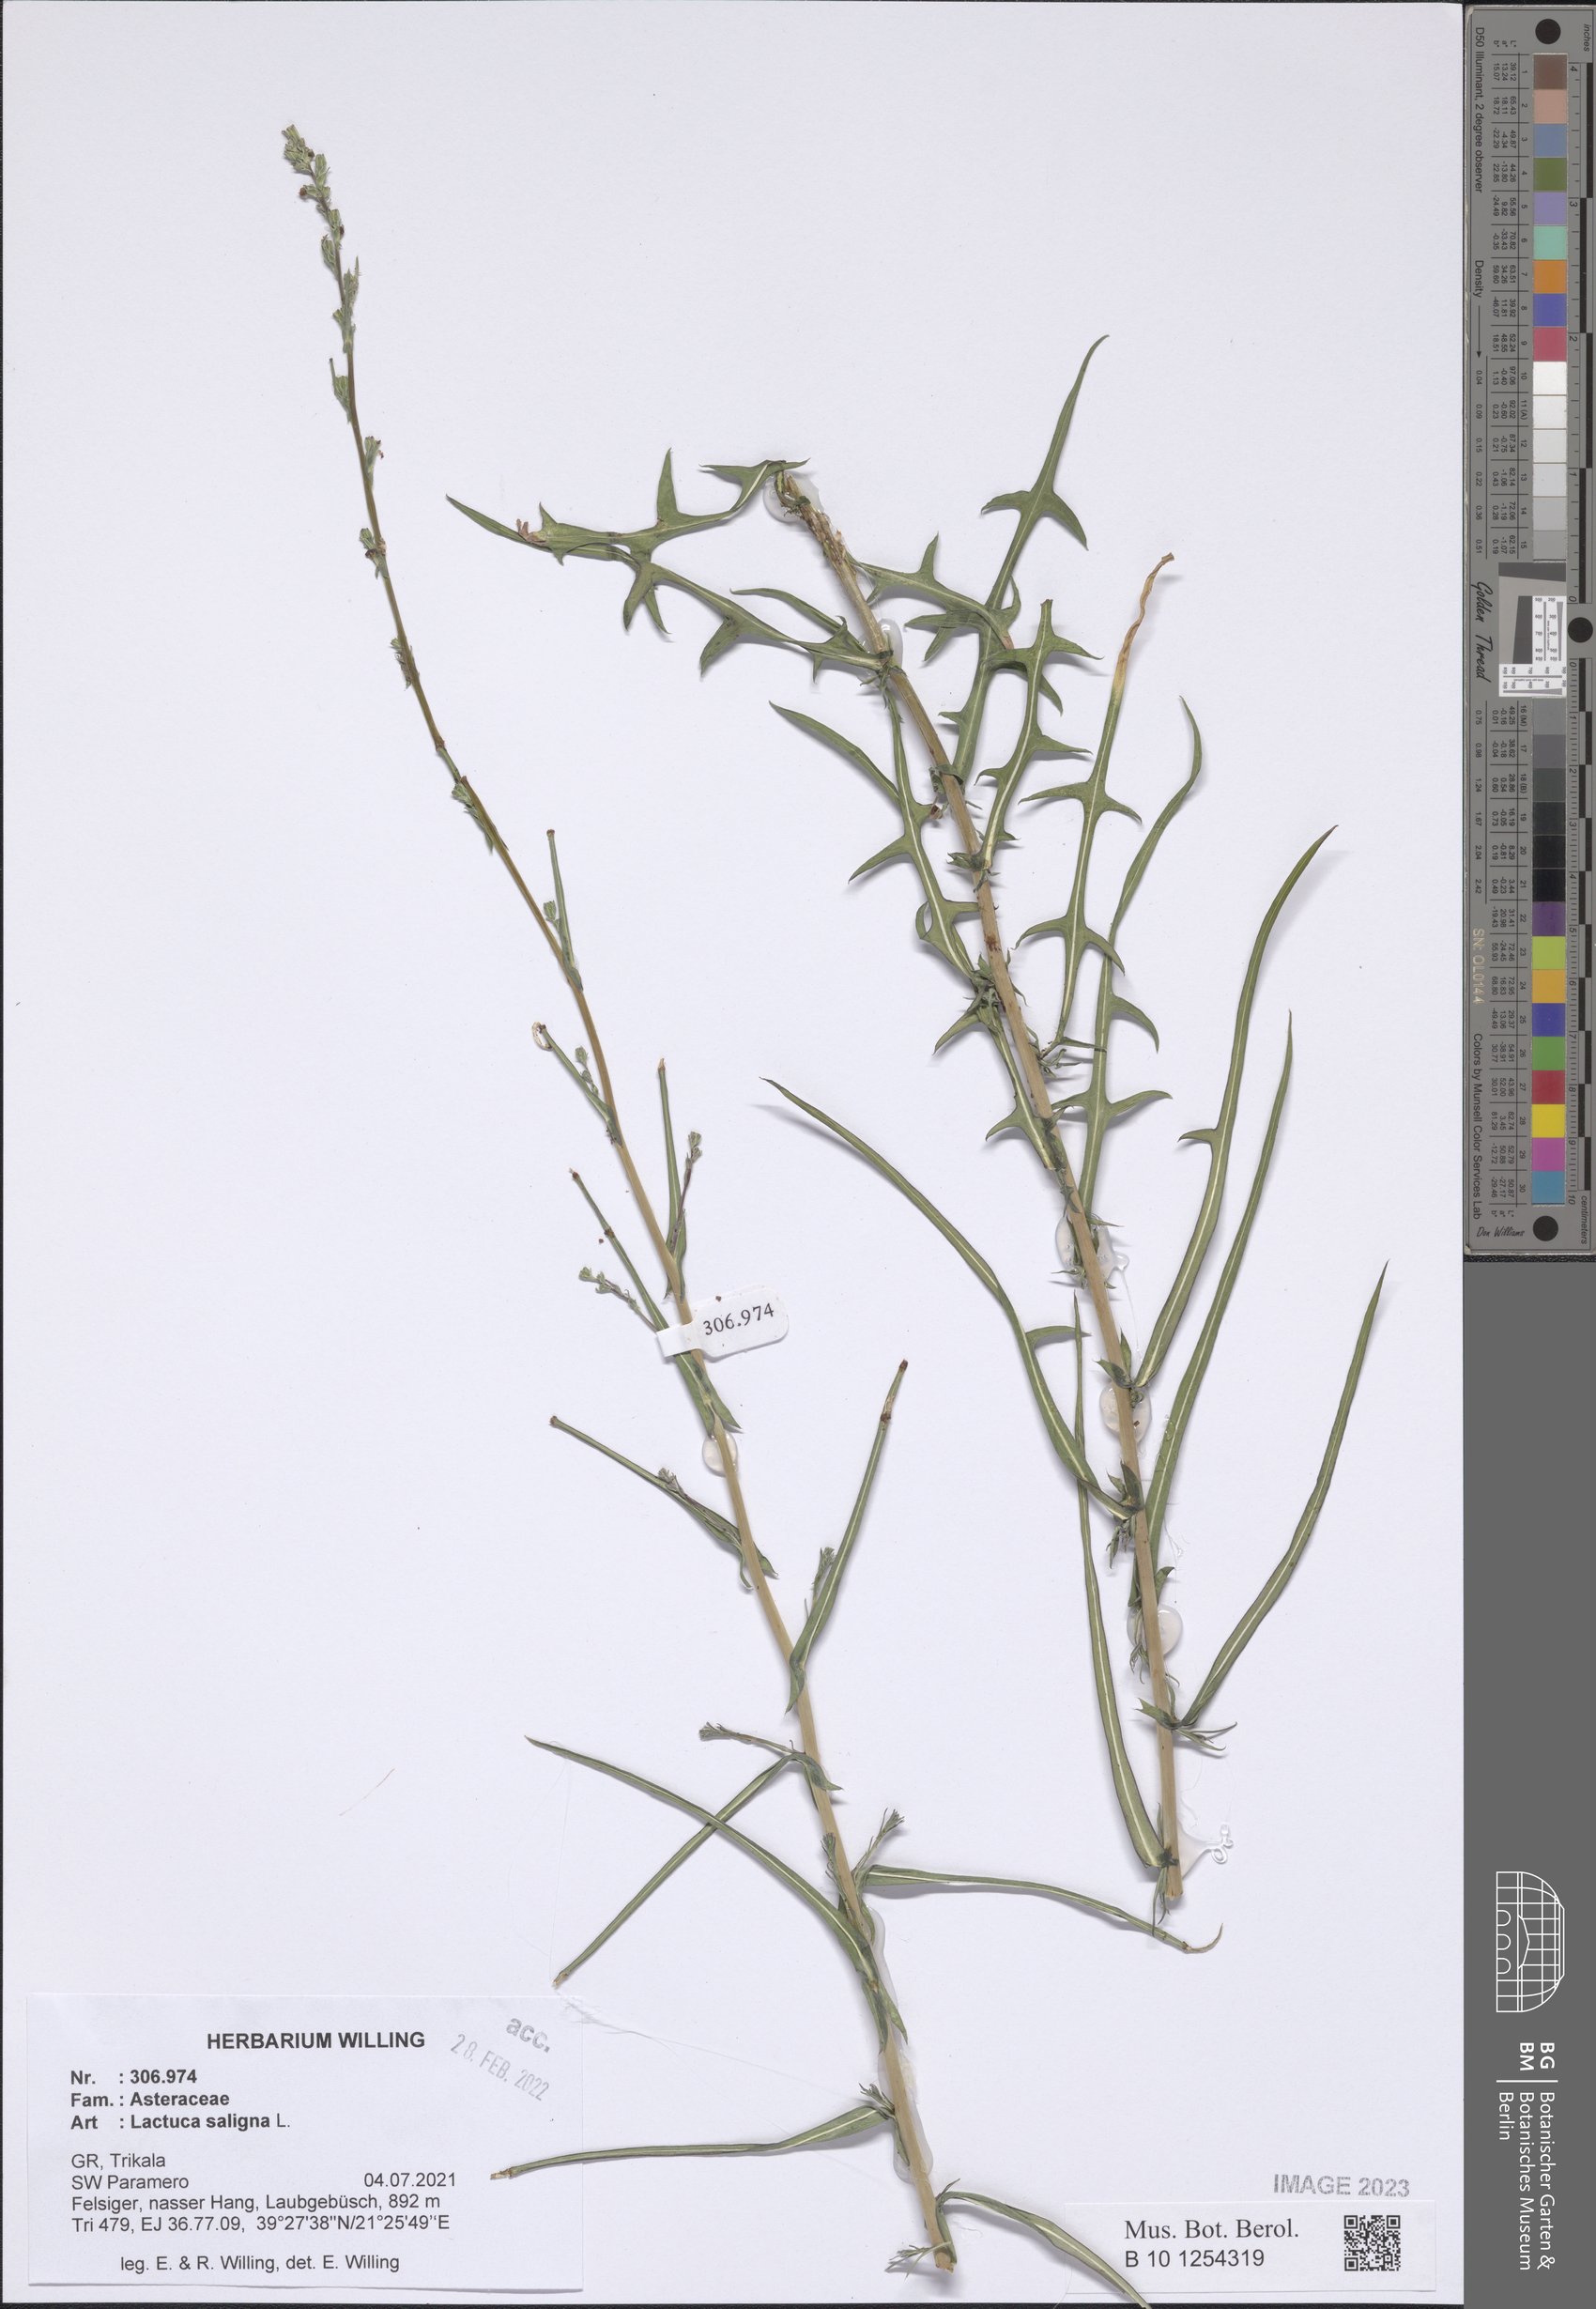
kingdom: Plantae
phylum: Tracheophyta
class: Magnoliopsida
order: Asterales
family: Asteraceae
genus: Lactuca
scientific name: Lactuca saligna
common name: Wild lettuce
